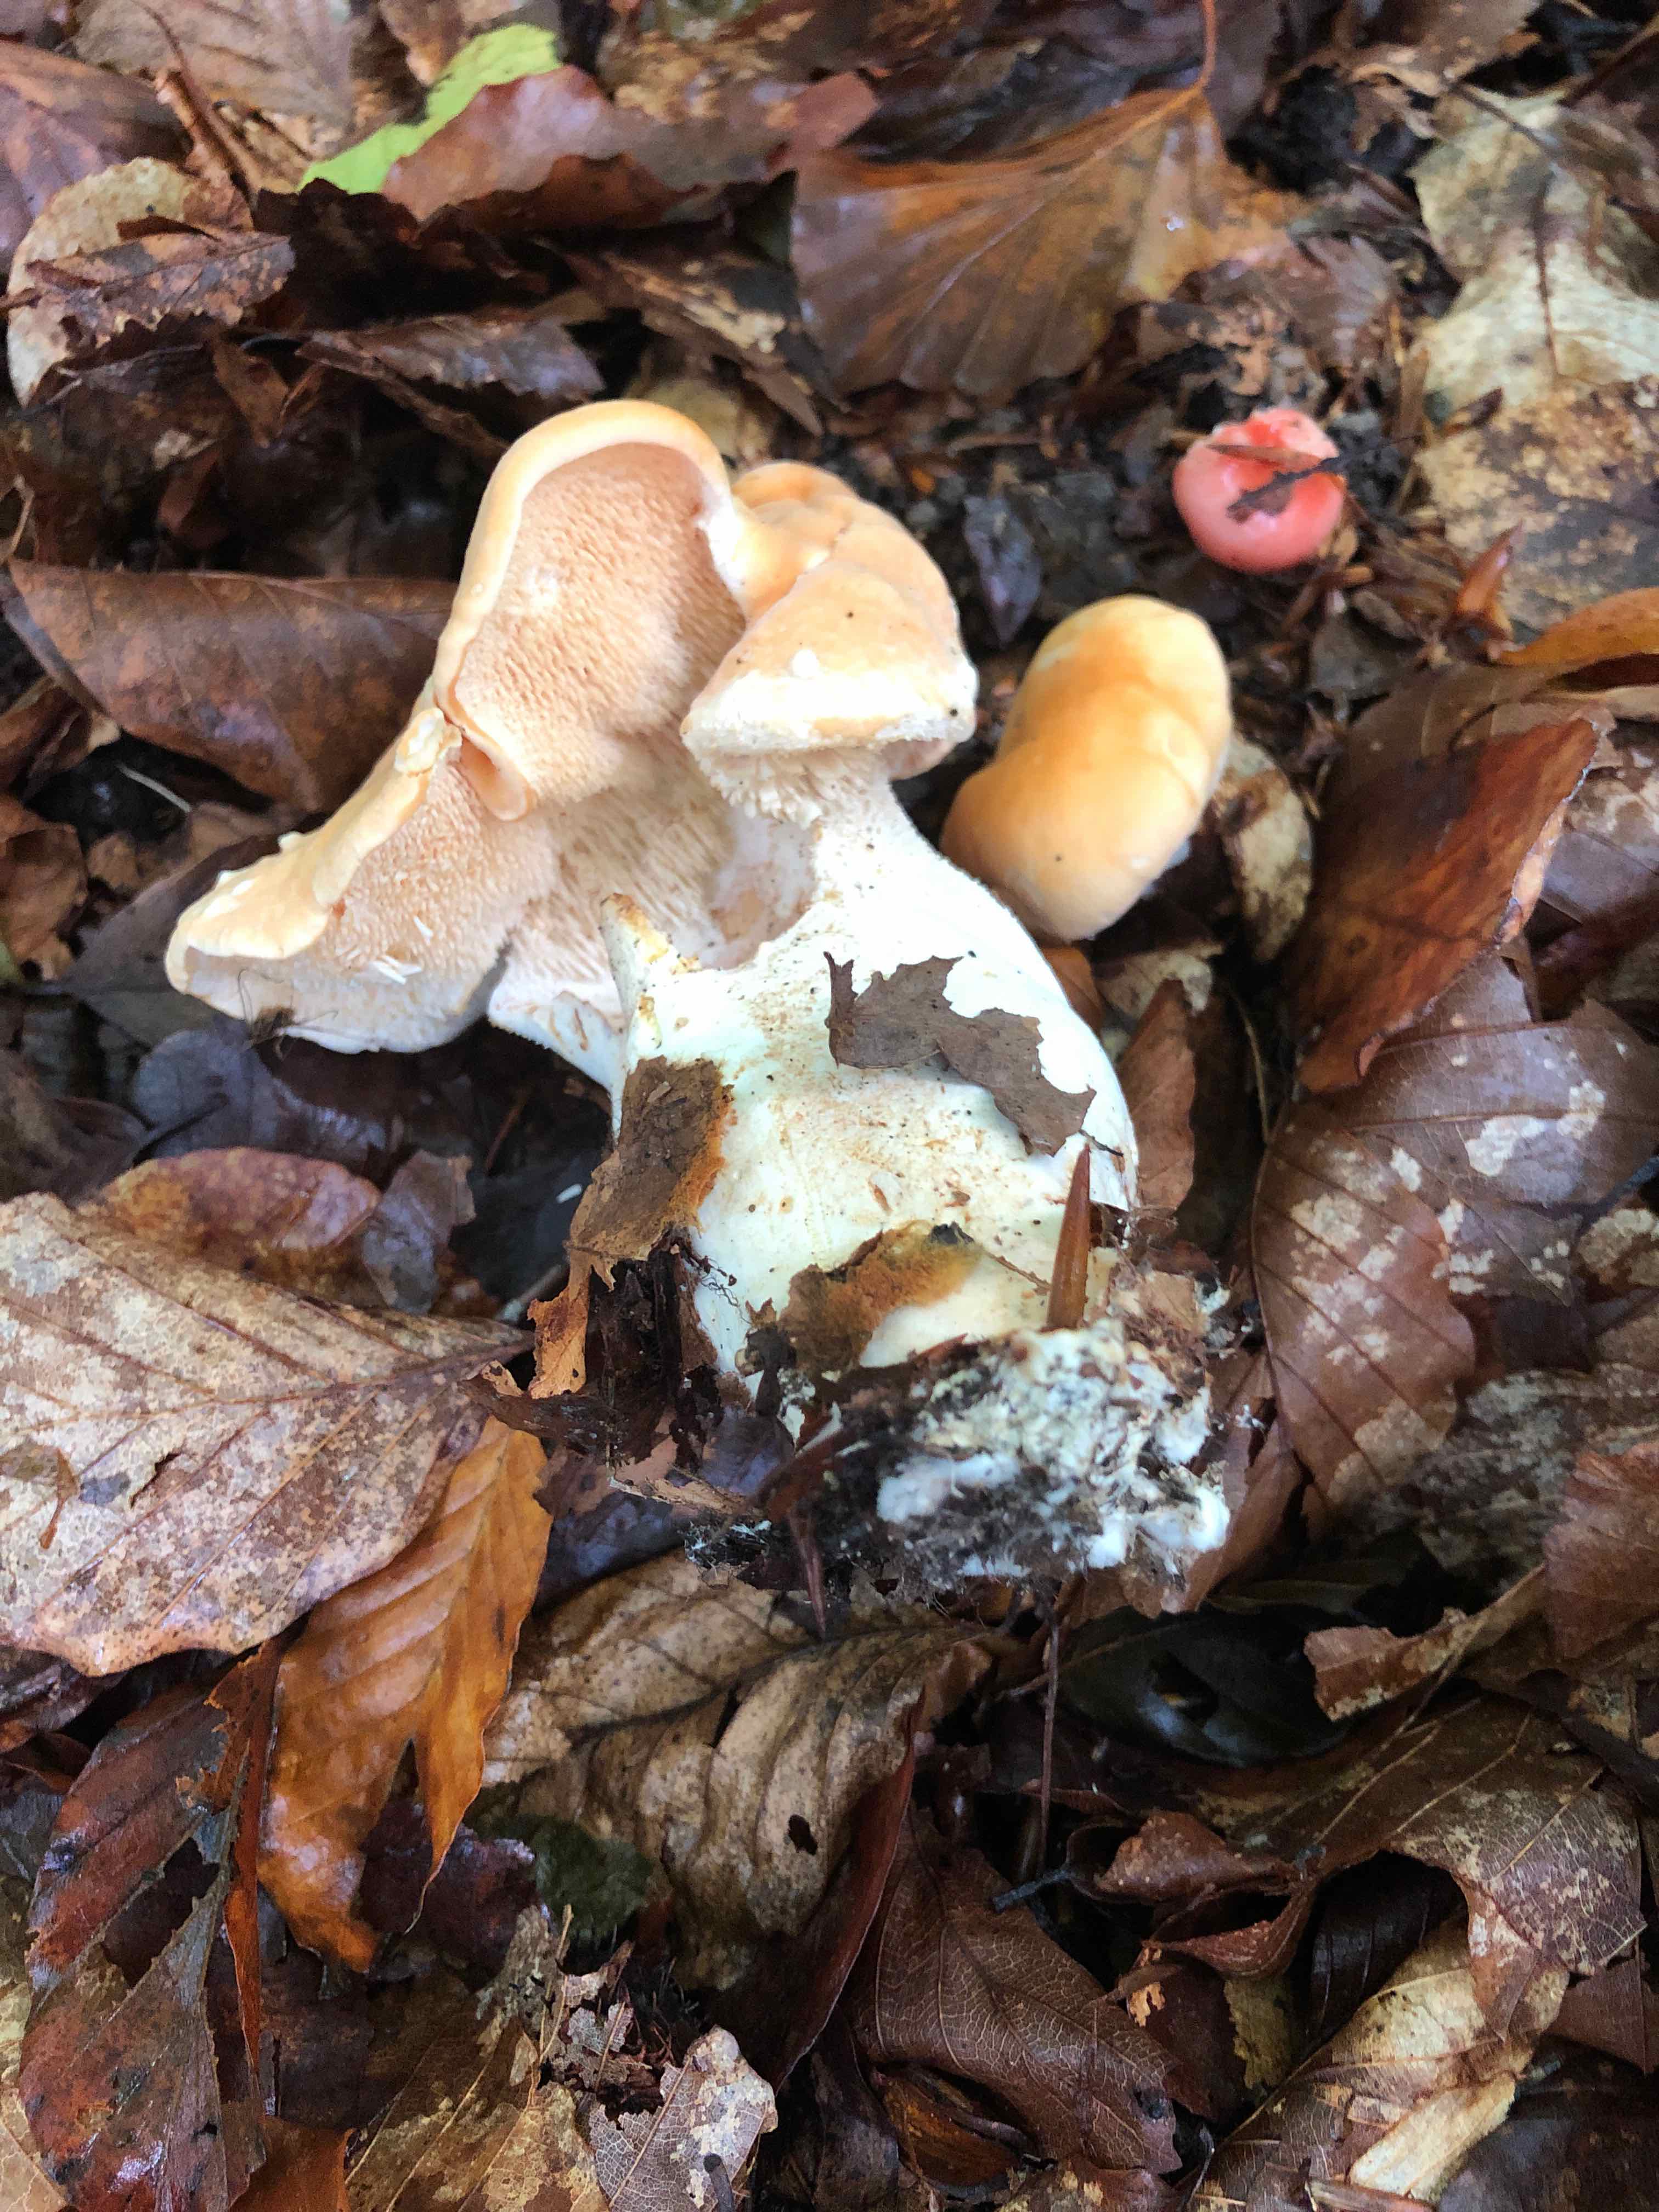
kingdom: Fungi
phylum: Basidiomycota
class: Agaricomycetes
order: Cantharellales
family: Hydnaceae
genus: Hydnum
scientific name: Hydnum
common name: pigsvamp
